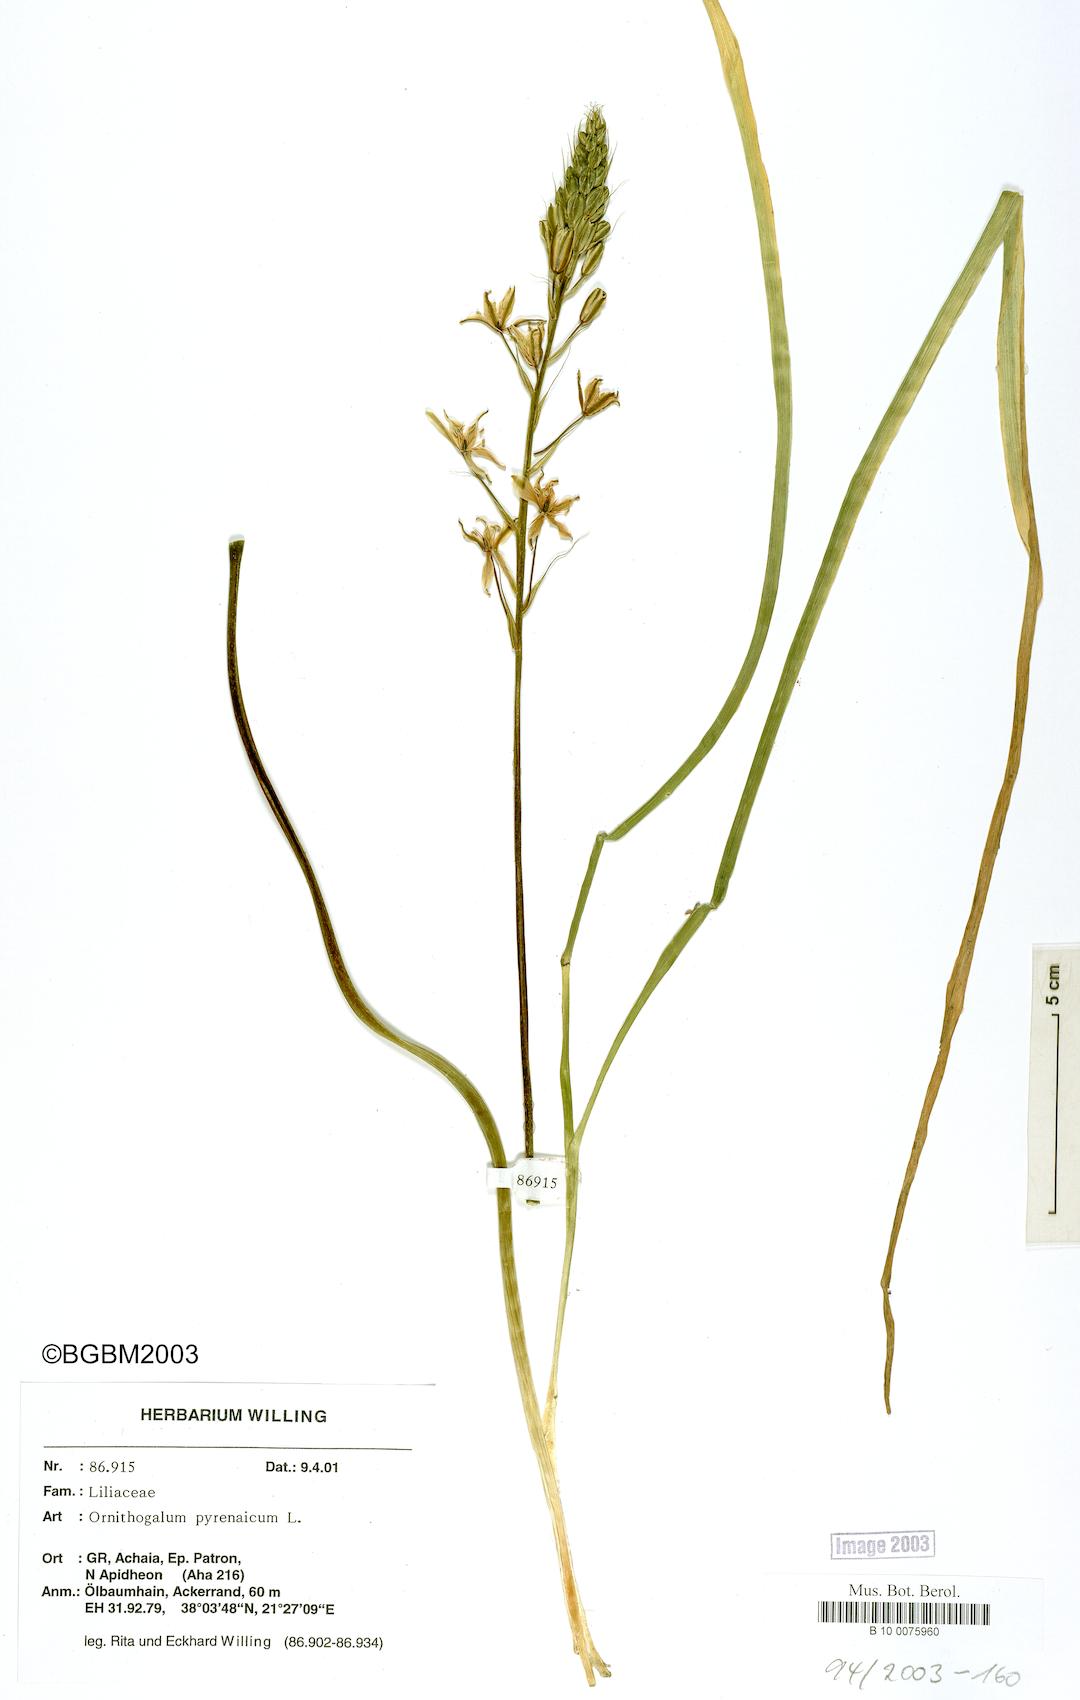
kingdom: Plantae
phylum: Tracheophyta
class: Liliopsida
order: Asparagales
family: Asparagaceae
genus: Ornithogalum
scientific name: Ornithogalum pyrenaicum
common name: Spiked star-of-bethlehem
